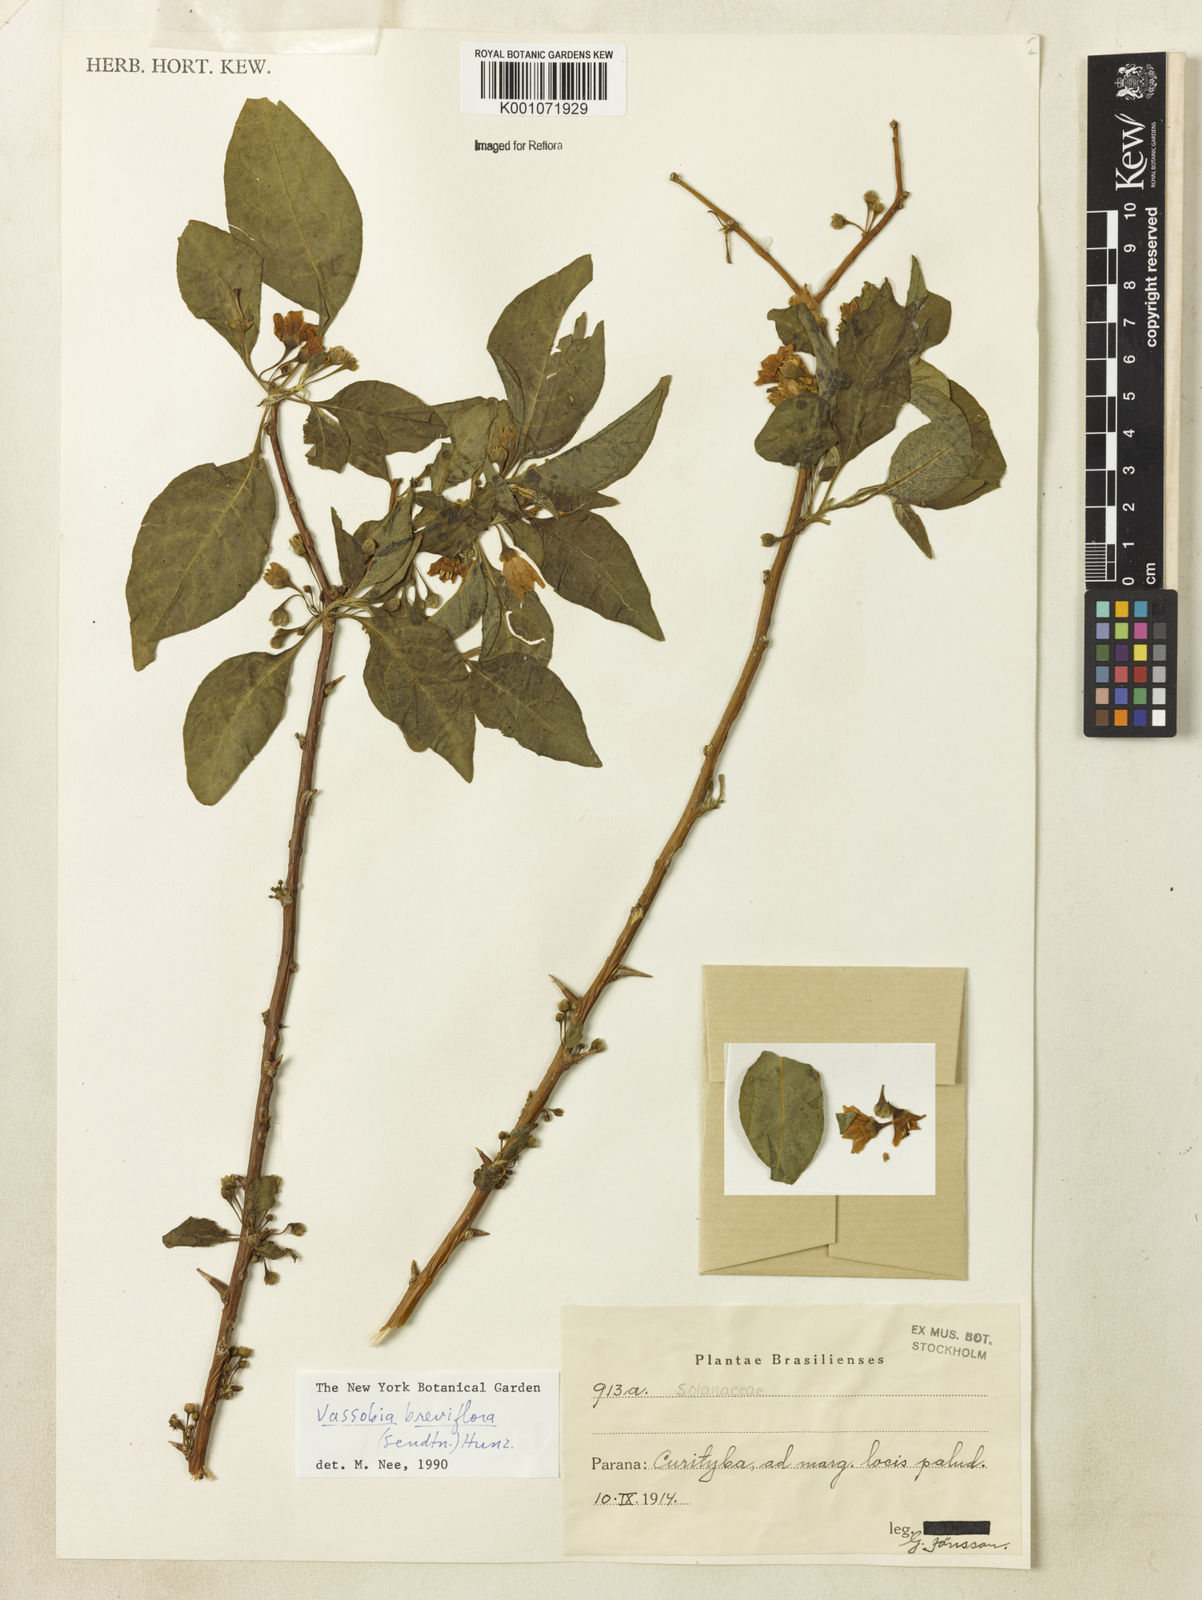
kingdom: Plantae
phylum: Tracheophyta
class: Magnoliopsida
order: Solanales
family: Solanaceae
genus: Vassobia
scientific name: Vassobia breviflora
